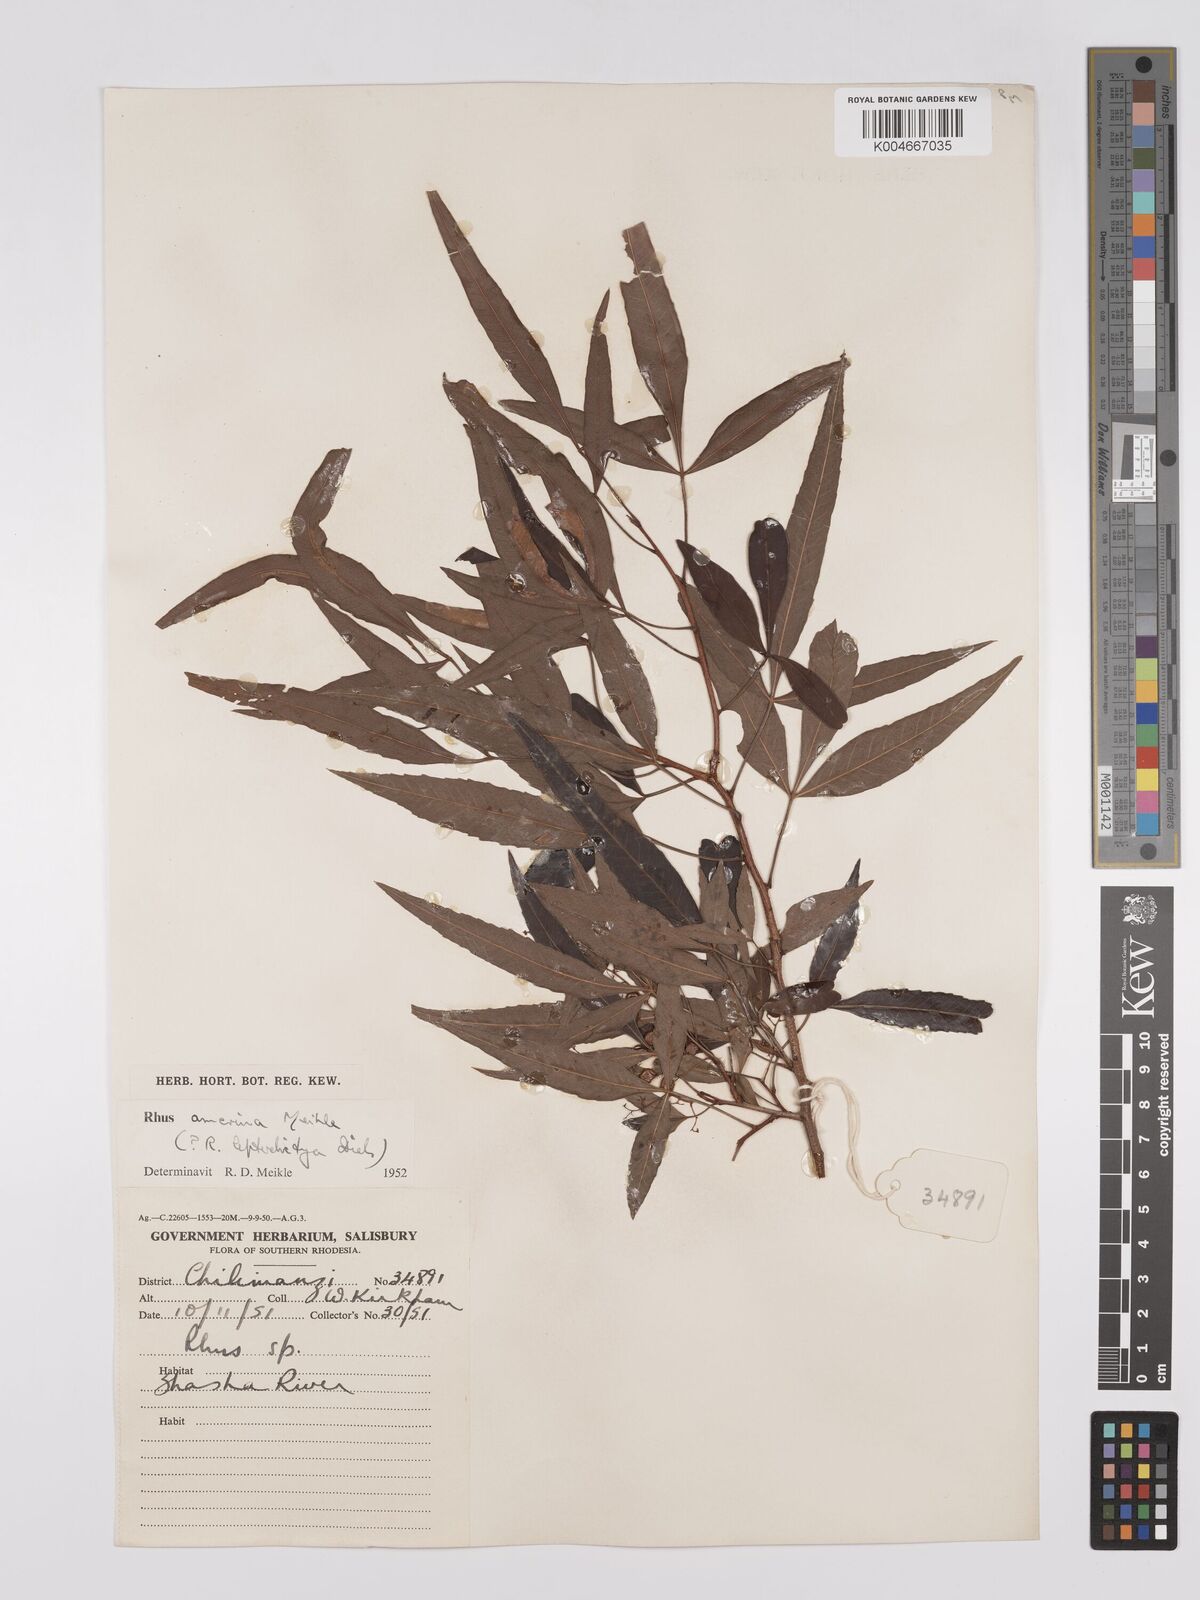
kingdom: Plantae
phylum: Tracheophyta
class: Magnoliopsida
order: Sapindales
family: Anacardiaceae
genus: Searsia
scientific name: Searsia leptodictya
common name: Mountain karee
